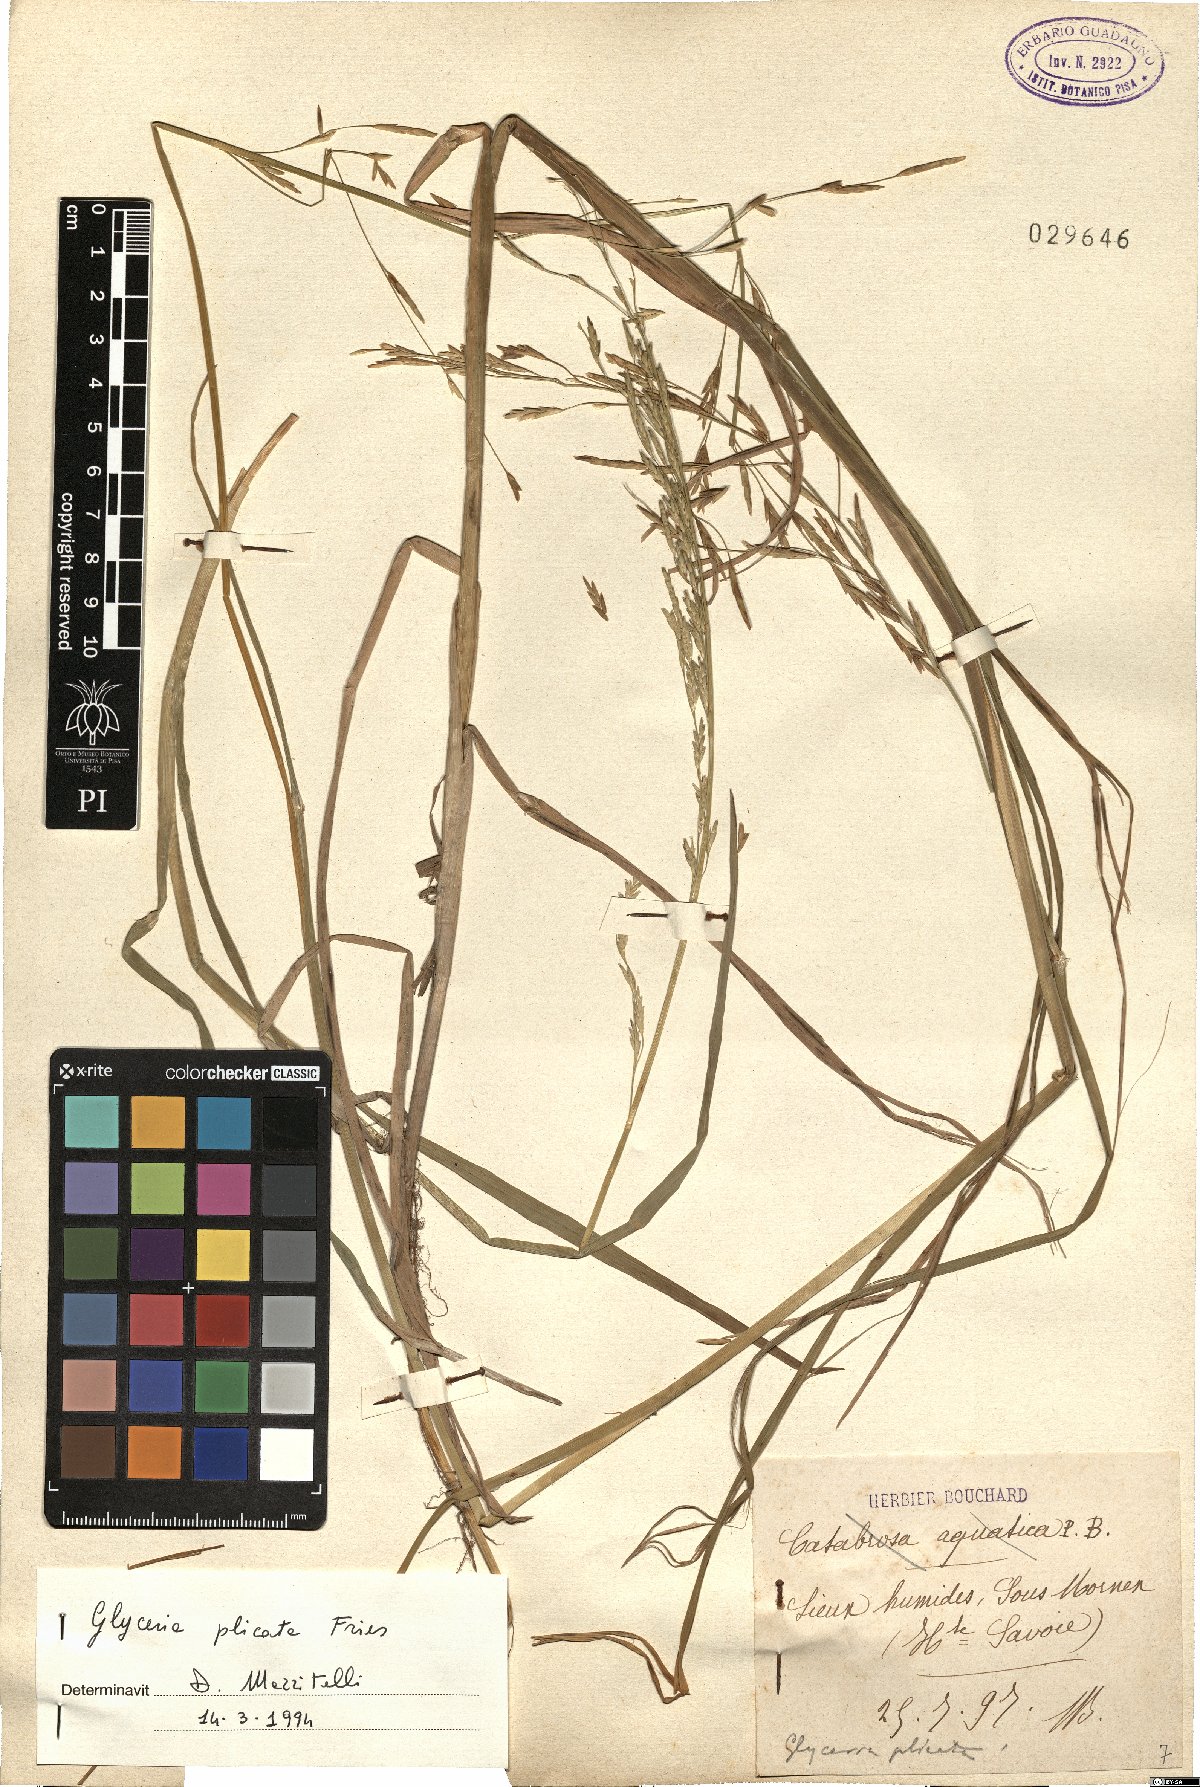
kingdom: Plantae
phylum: Tracheophyta
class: Liliopsida
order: Poales
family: Poaceae
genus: Glyceria
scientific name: Glyceria notata
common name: Plicate sweet-grass
